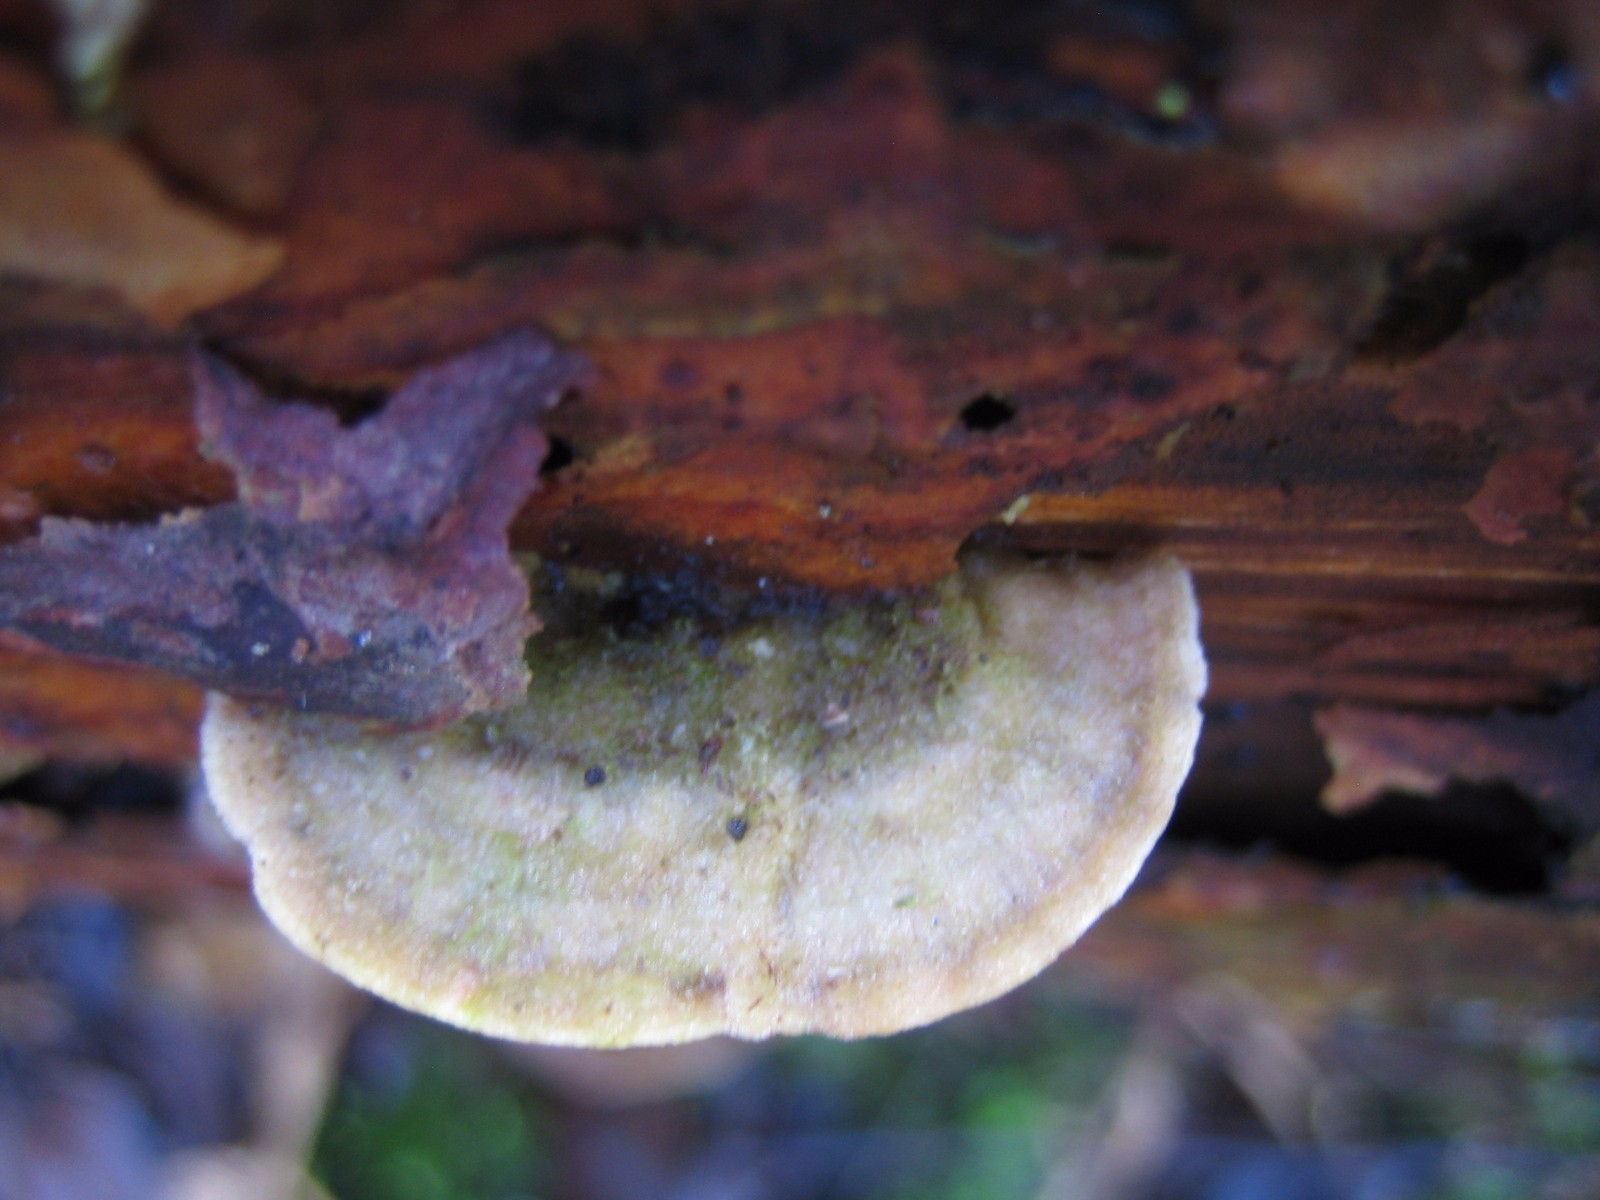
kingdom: Fungi
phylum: Basidiomycota
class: Agaricomycetes
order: Hymenochaetales
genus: Trichaptum
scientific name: Trichaptum abietinum
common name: almindelig violporesvamp
